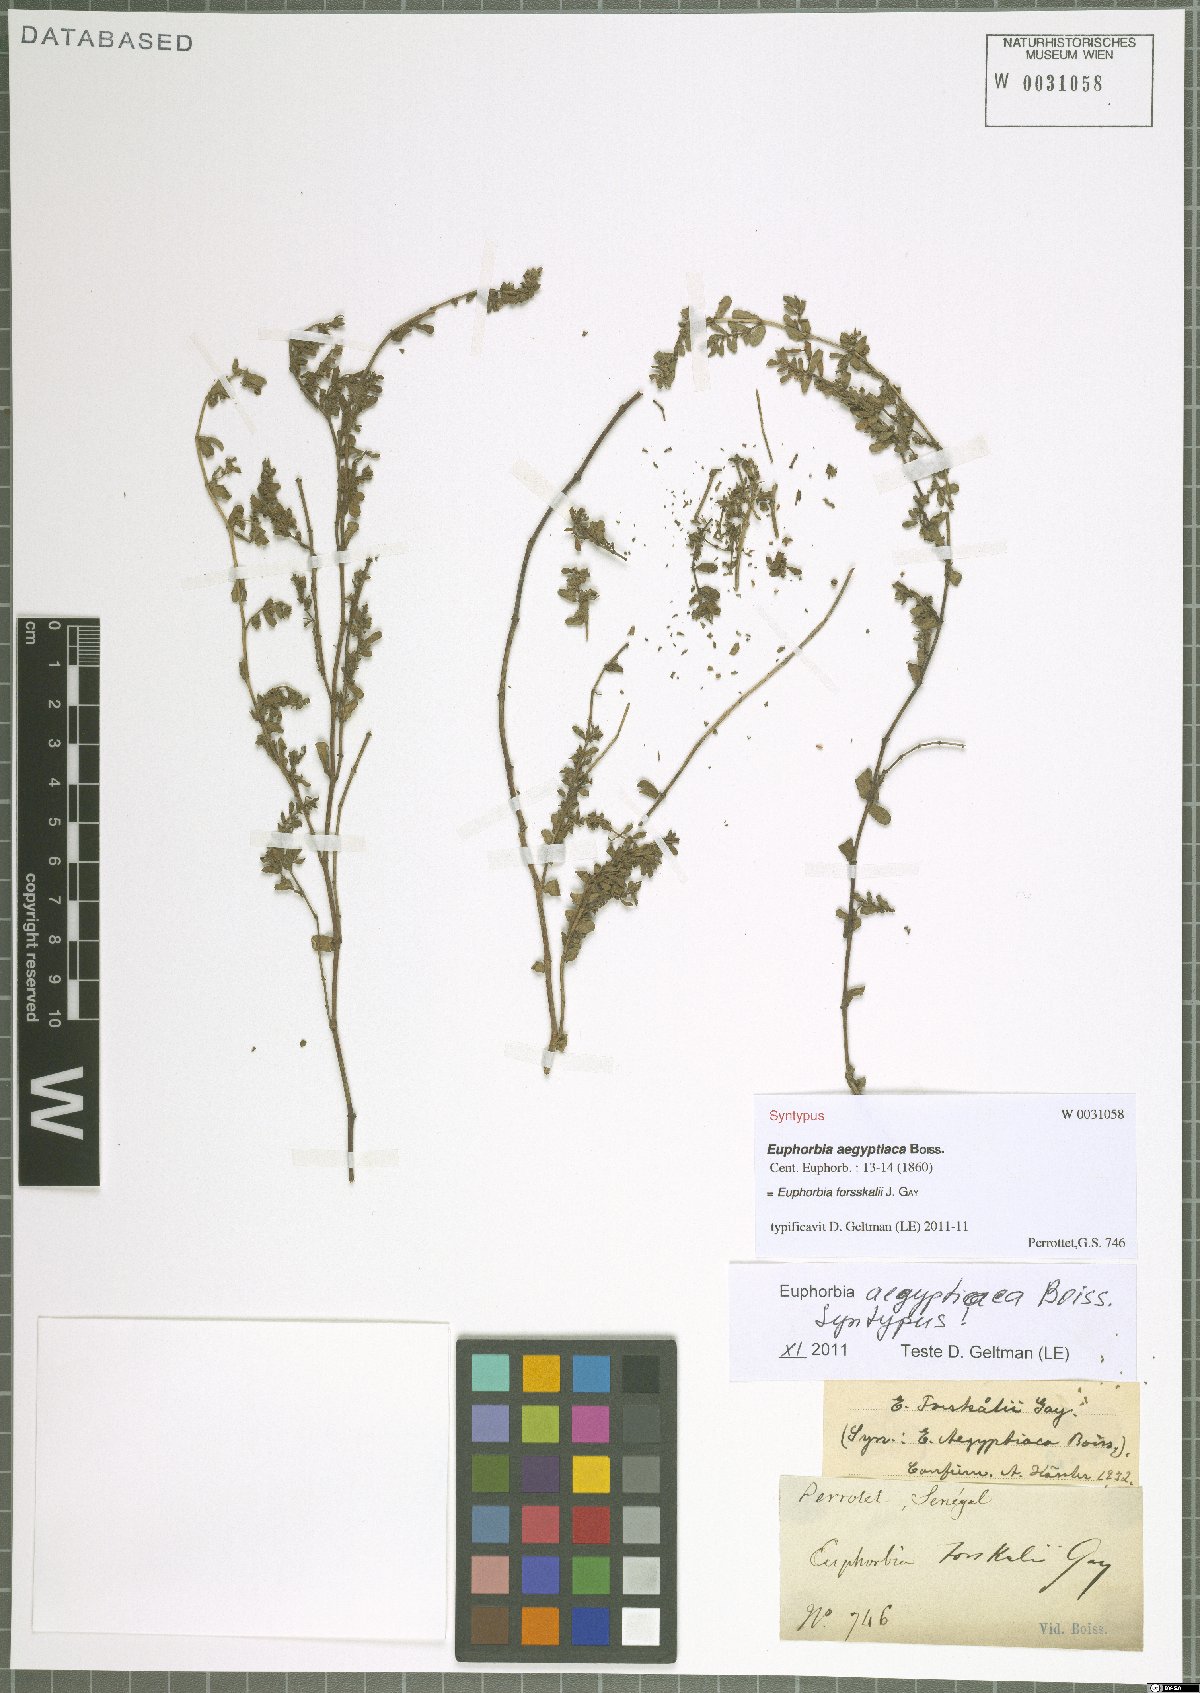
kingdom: Plantae
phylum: Tracheophyta
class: Magnoliopsida
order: Malpighiales
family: Euphorbiaceae
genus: Euphorbia
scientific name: Euphorbia forsskalii
